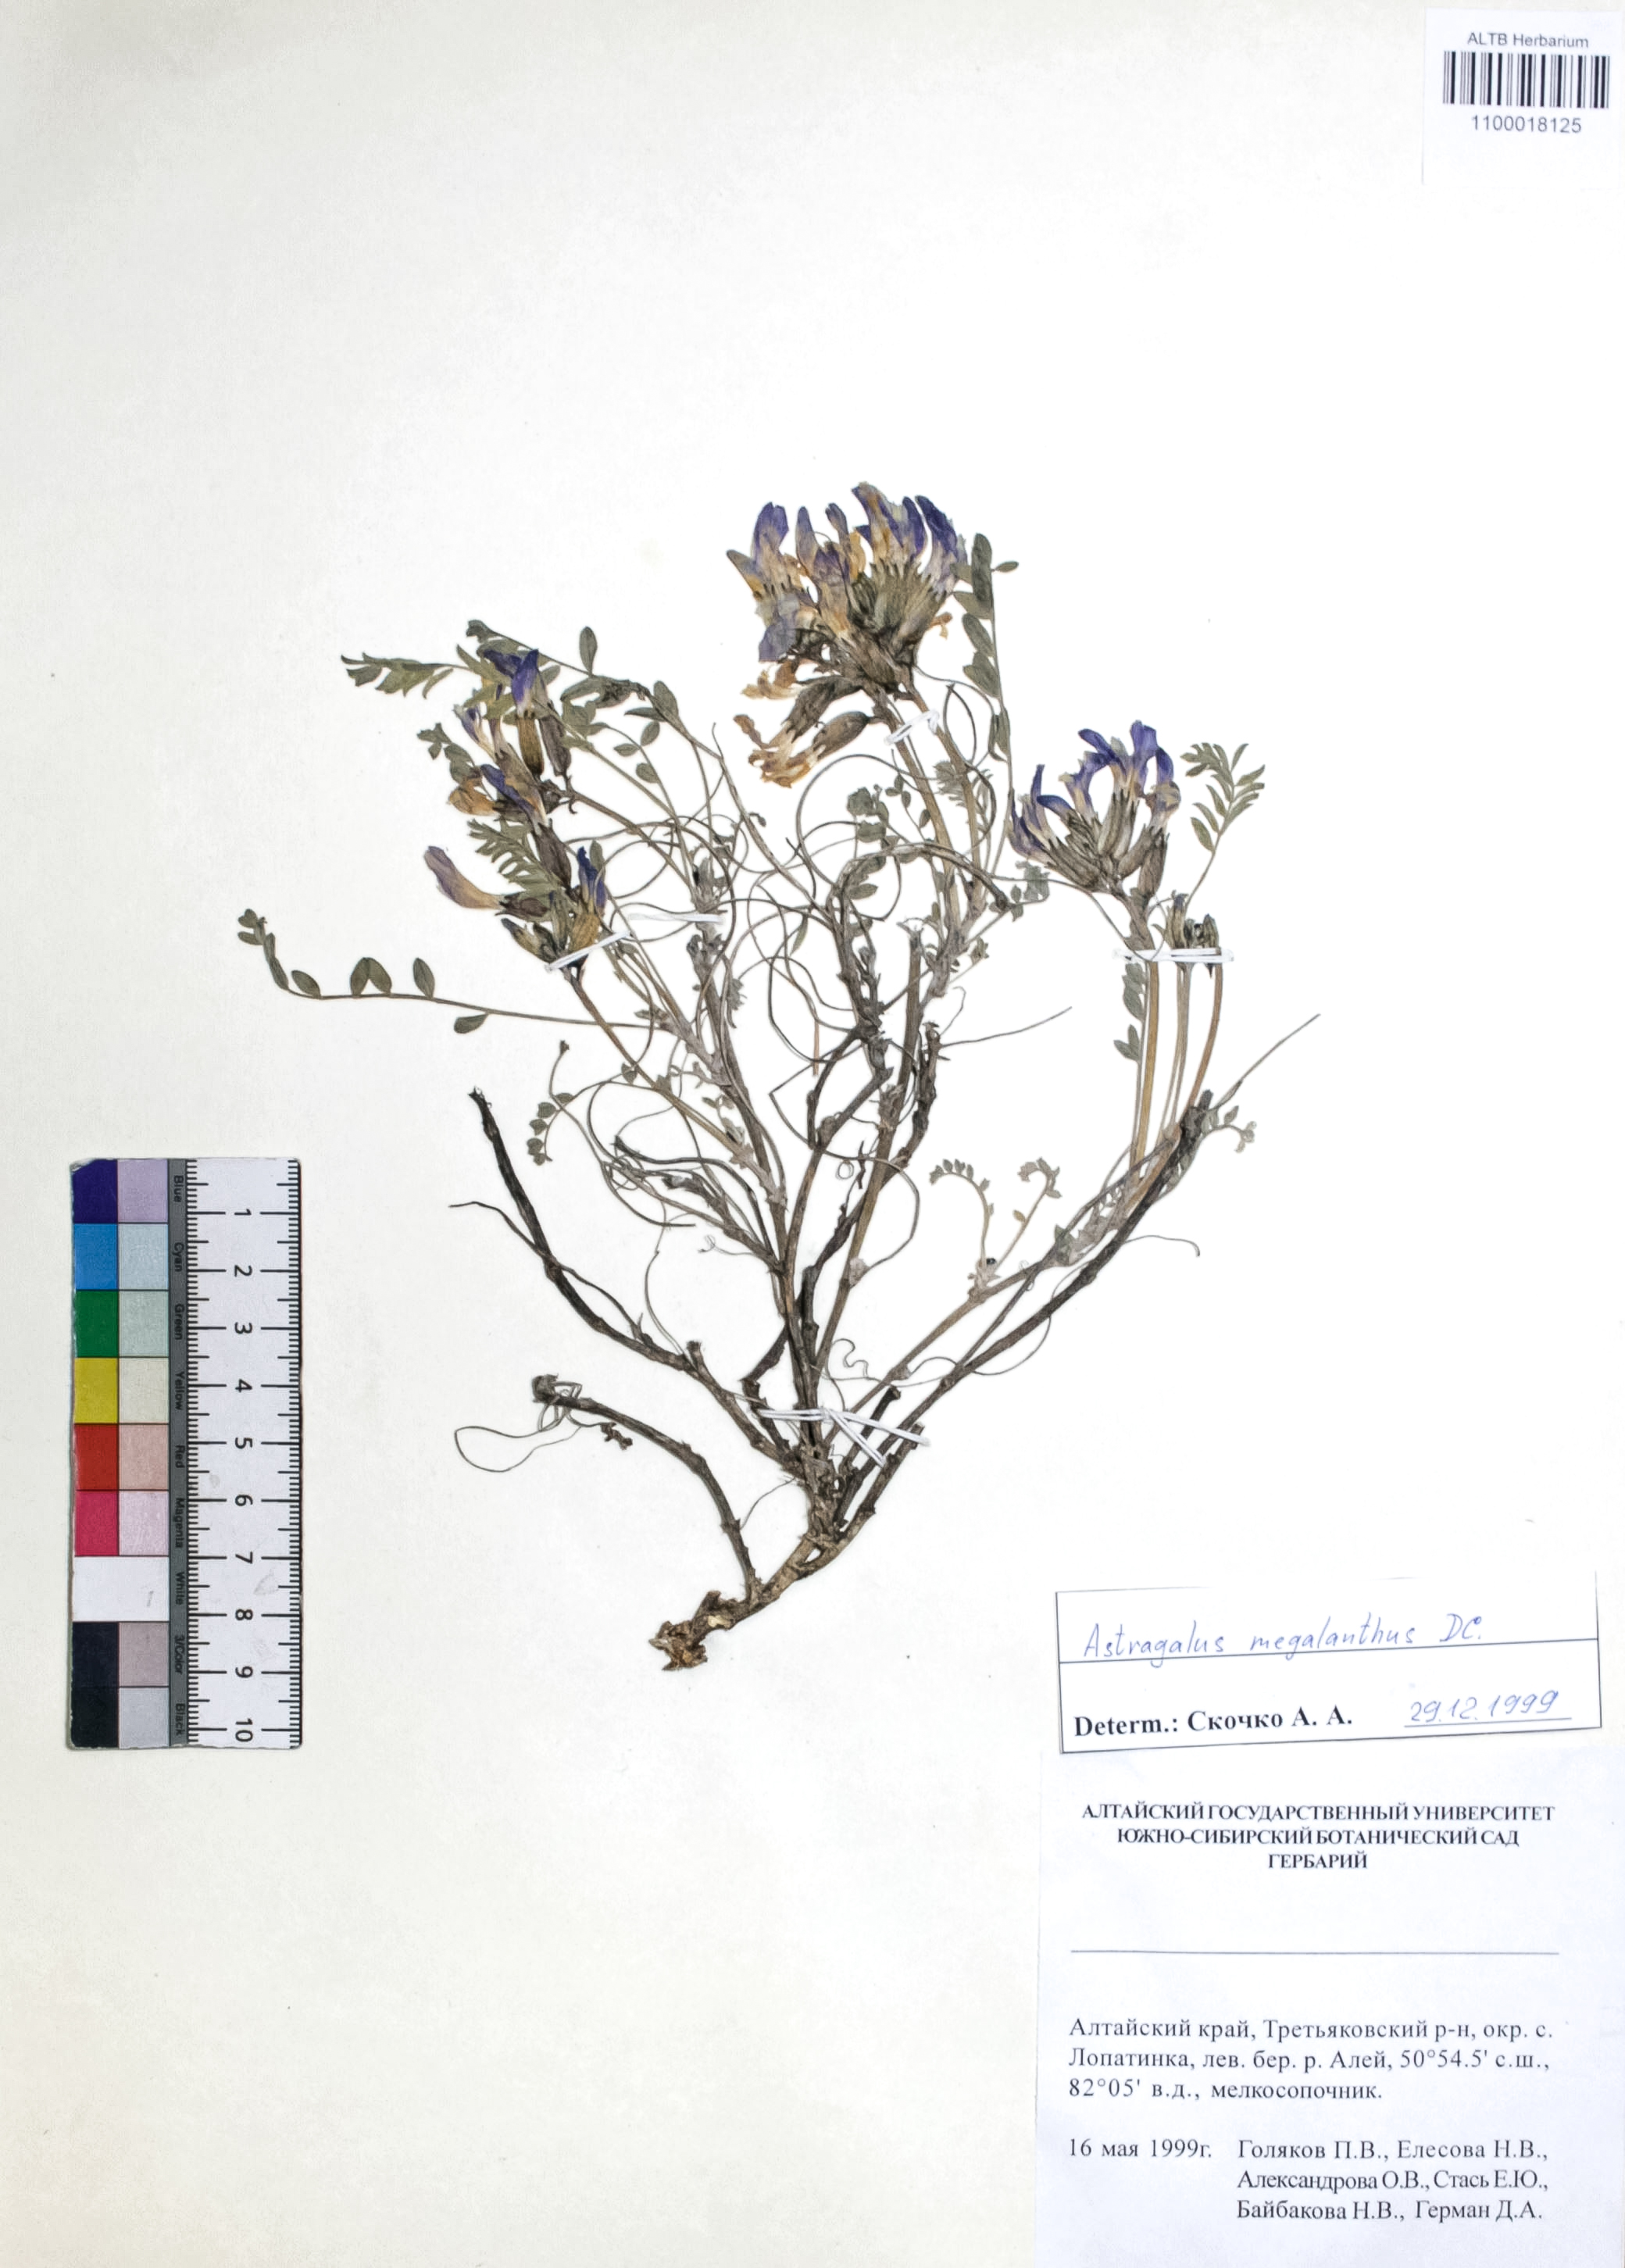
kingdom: Plantae
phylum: Tracheophyta
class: Magnoliopsida
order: Fabales
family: Fabaceae
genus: Astragalus
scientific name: Astragalus leptostachys
